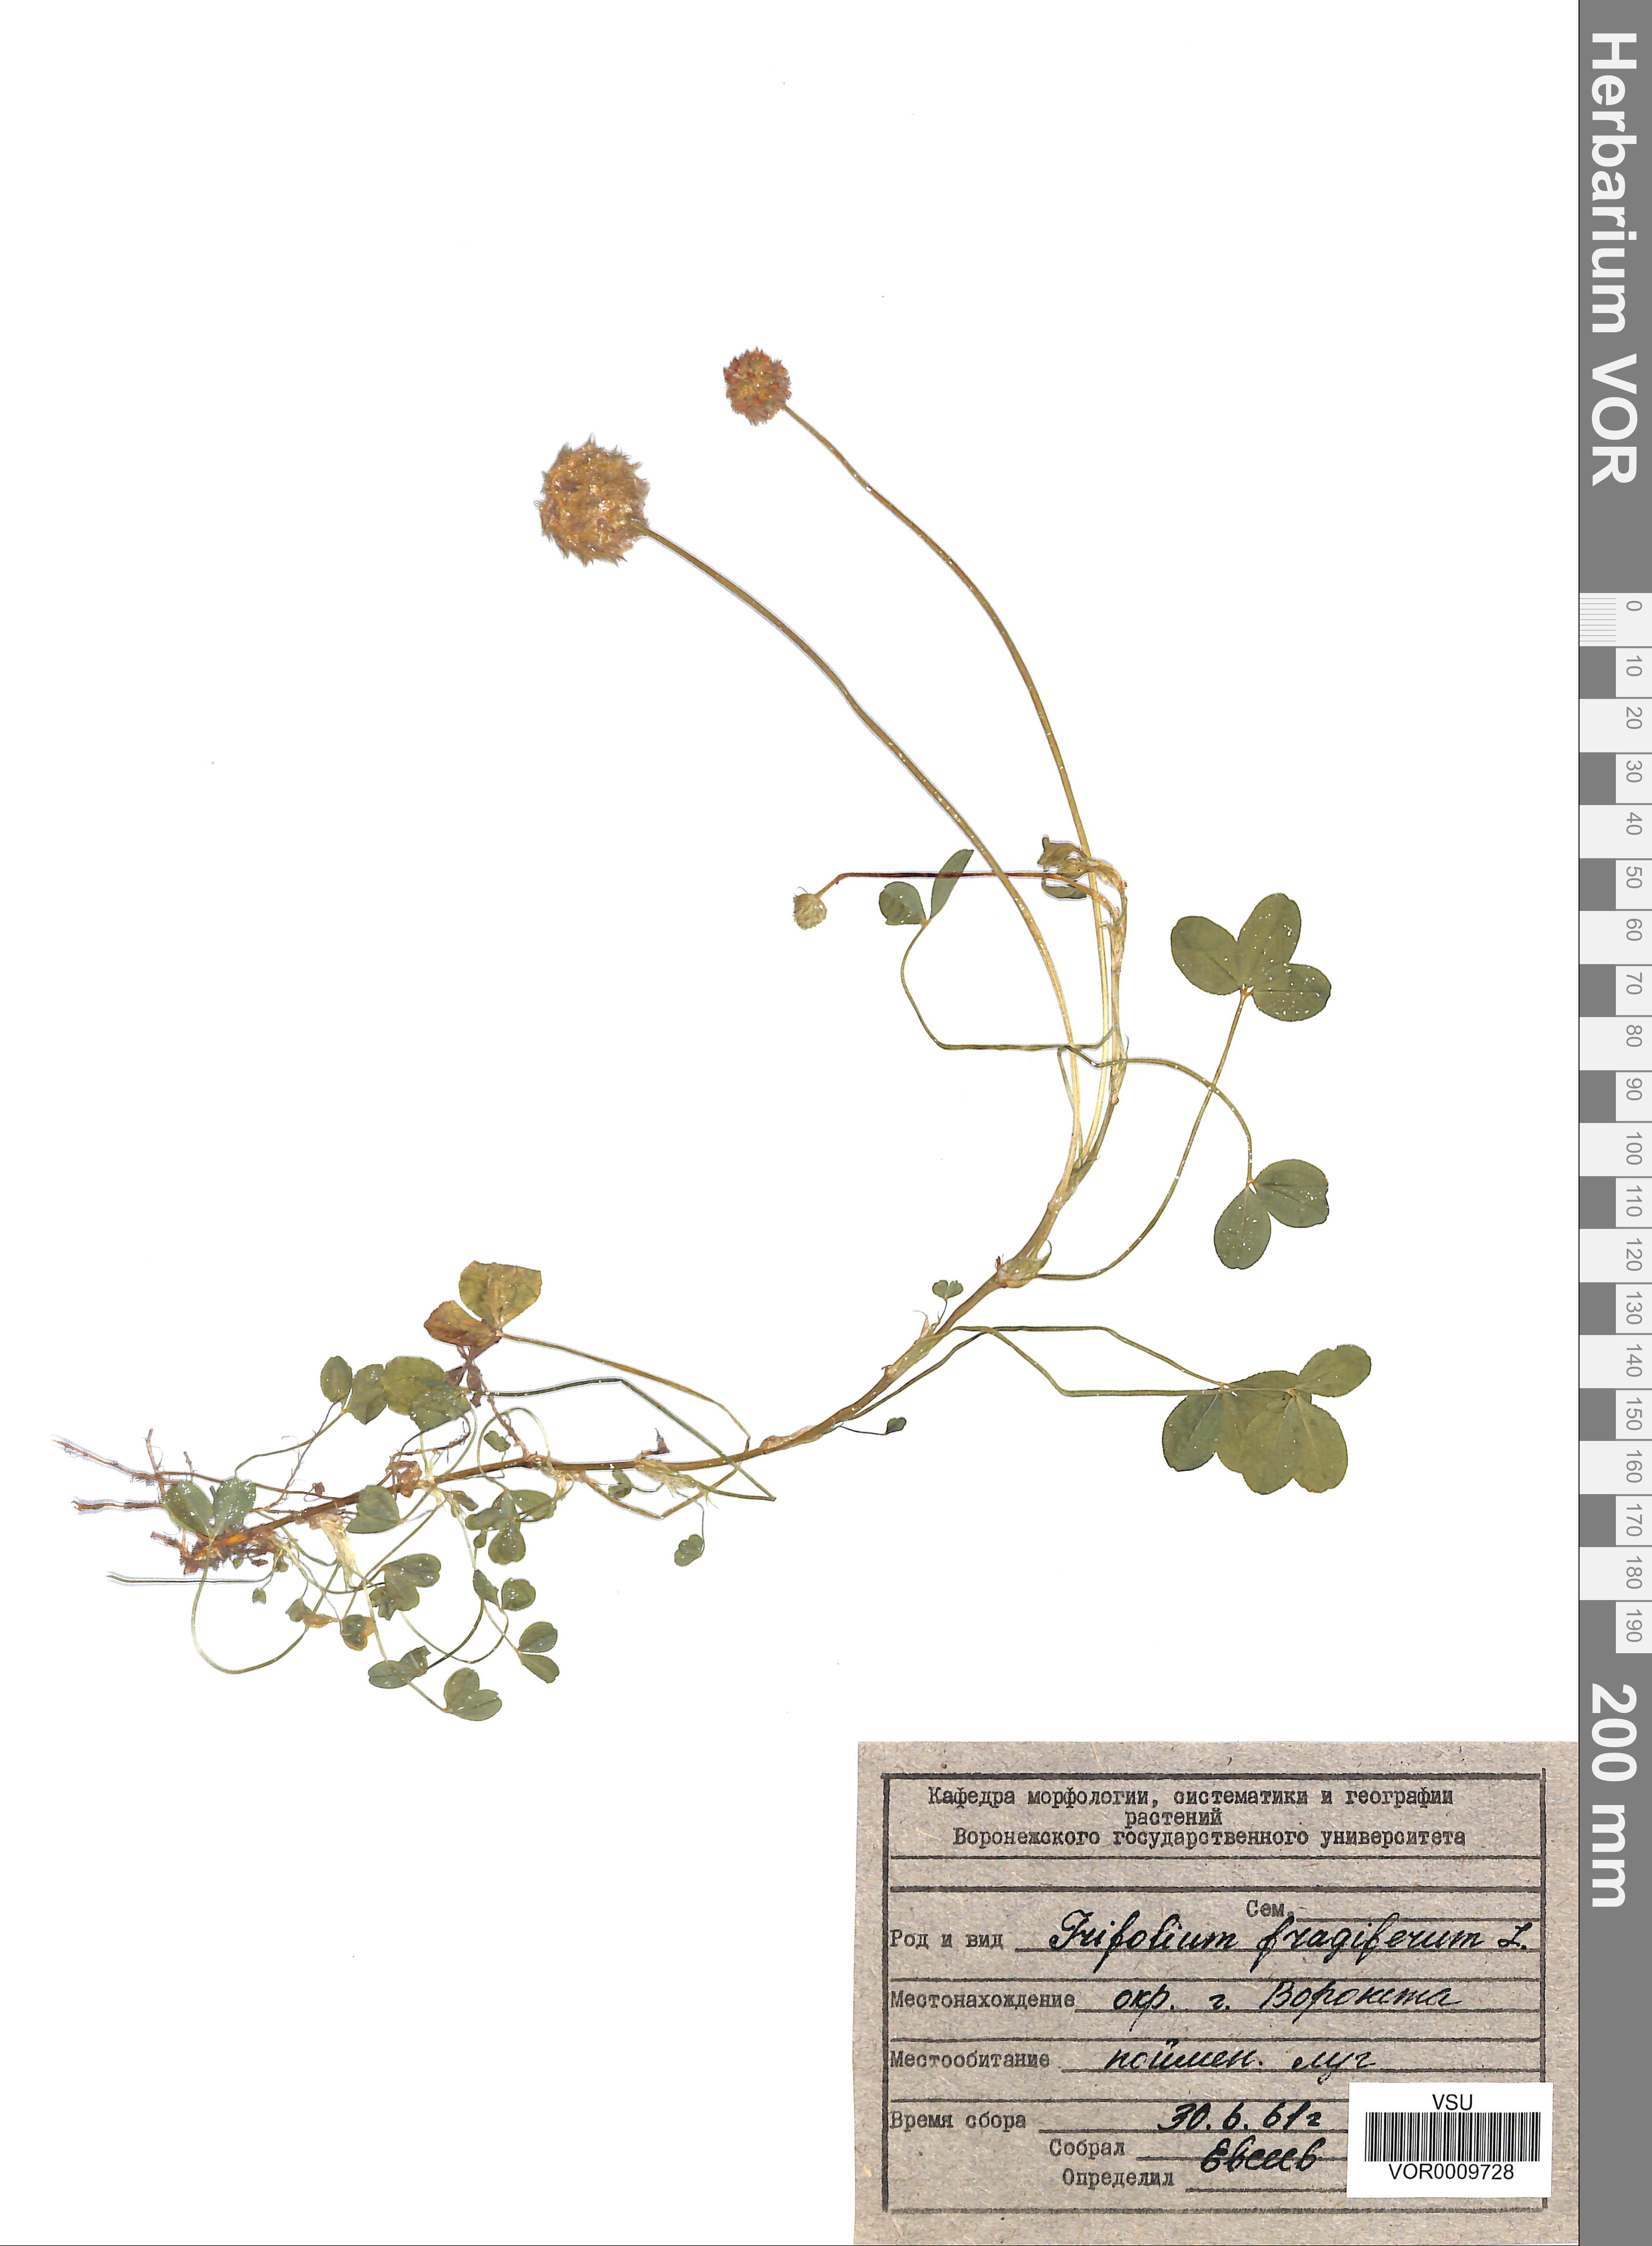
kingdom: Plantae
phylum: Tracheophyta
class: Magnoliopsida
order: Fabales
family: Fabaceae
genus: Trifolium
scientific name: Trifolium fragiferum
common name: Strawberry clover
